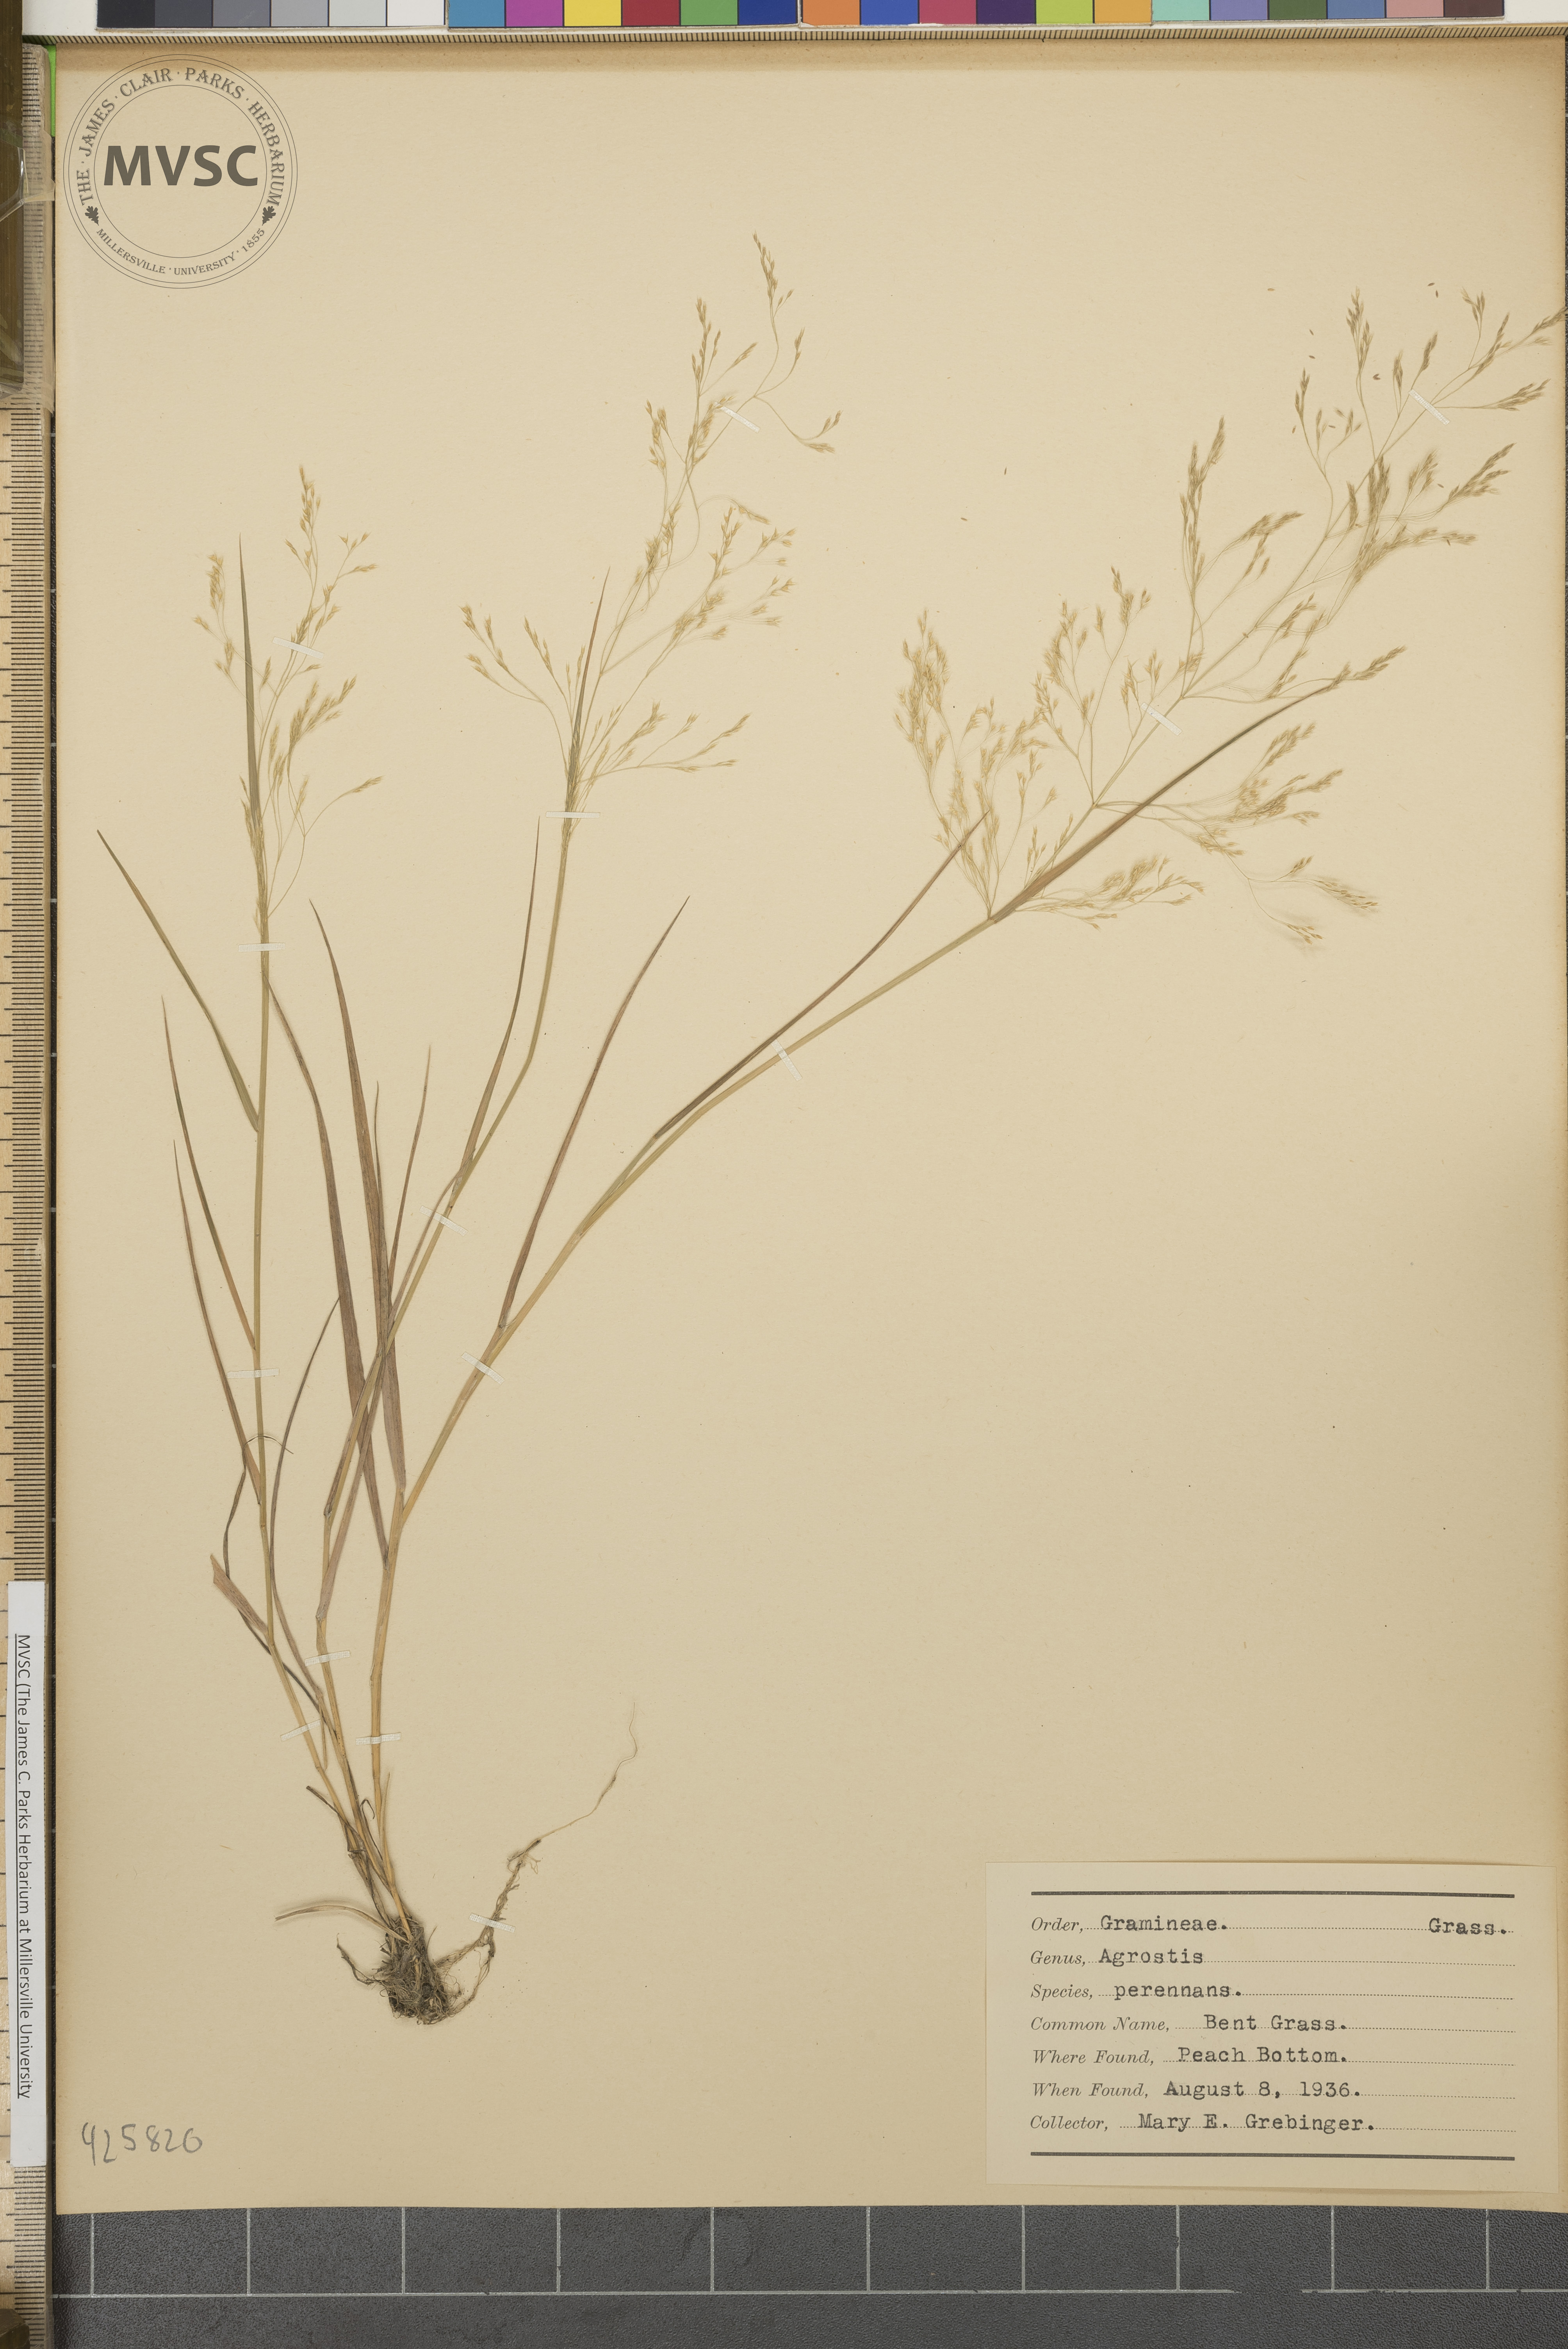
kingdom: Plantae
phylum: Tracheophyta
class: Liliopsida
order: Poales
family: Poaceae
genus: Agrostis
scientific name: Agrostis perennans
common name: Bent grass
